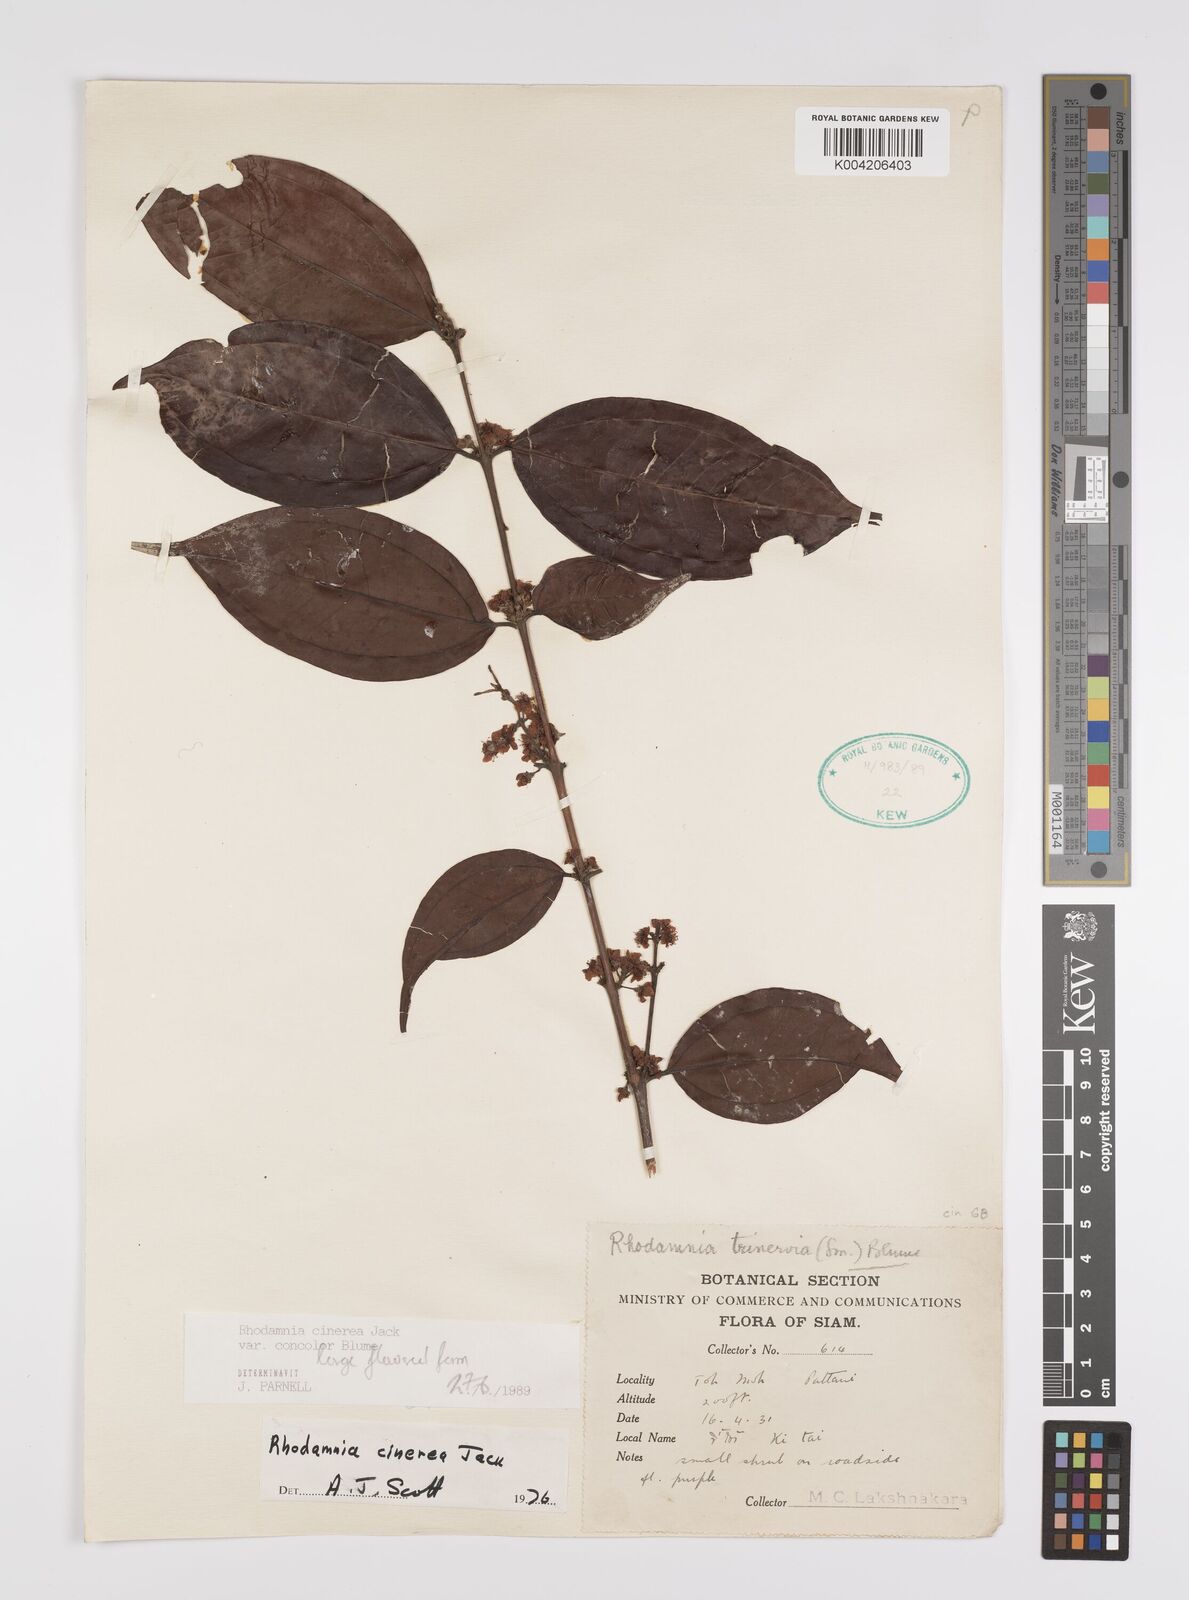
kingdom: Plantae
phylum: Tracheophyta
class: Magnoliopsida
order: Myrtales
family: Myrtaceae
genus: Rhodamnia
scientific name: Rhodamnia cinerea
